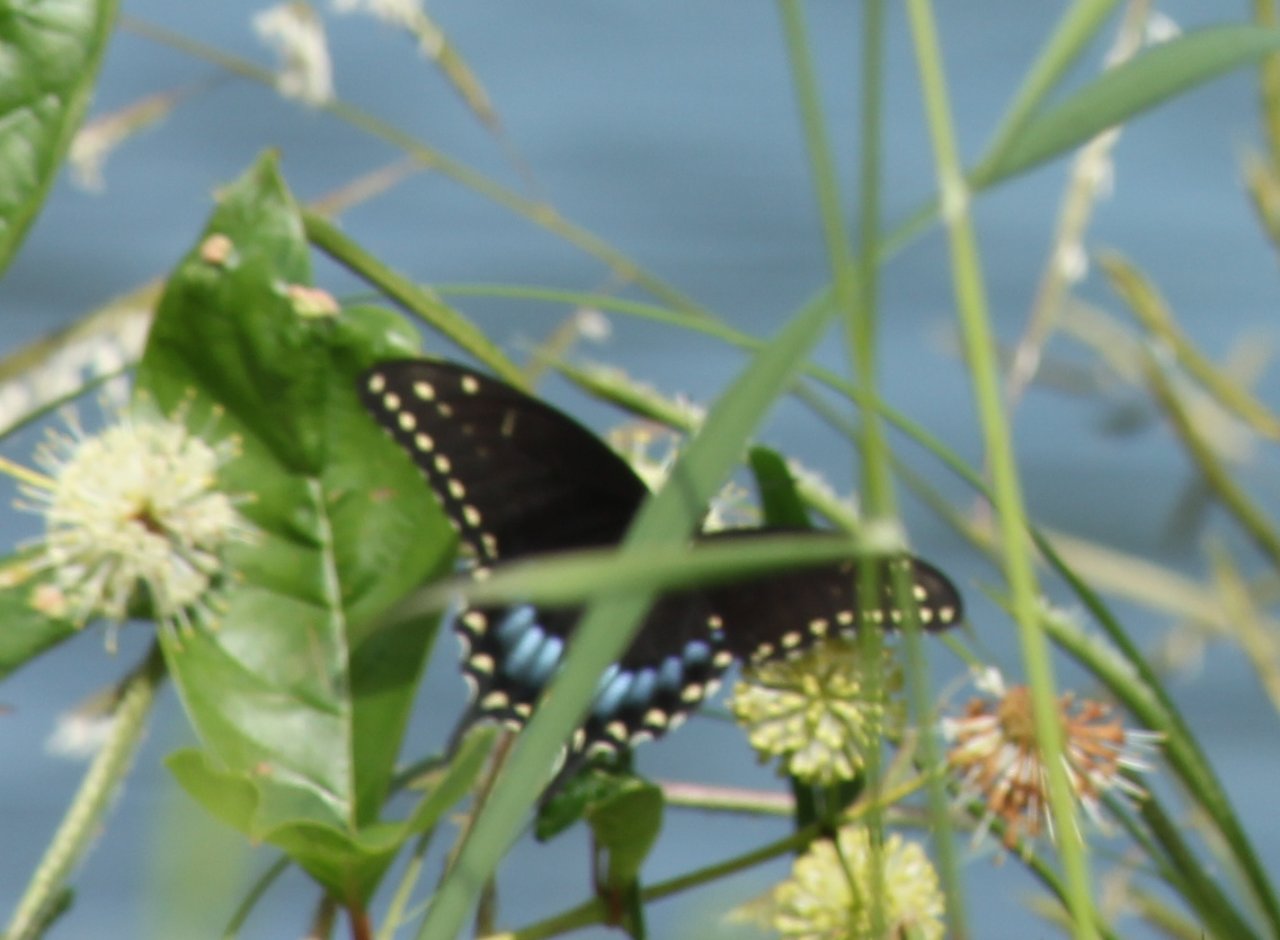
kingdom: Animalia
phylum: Arthropoda
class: Insecta
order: Lepidoptera
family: Papilionidae
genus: Papilio
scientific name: Papilio polyxenes
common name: Black Swallowtail
